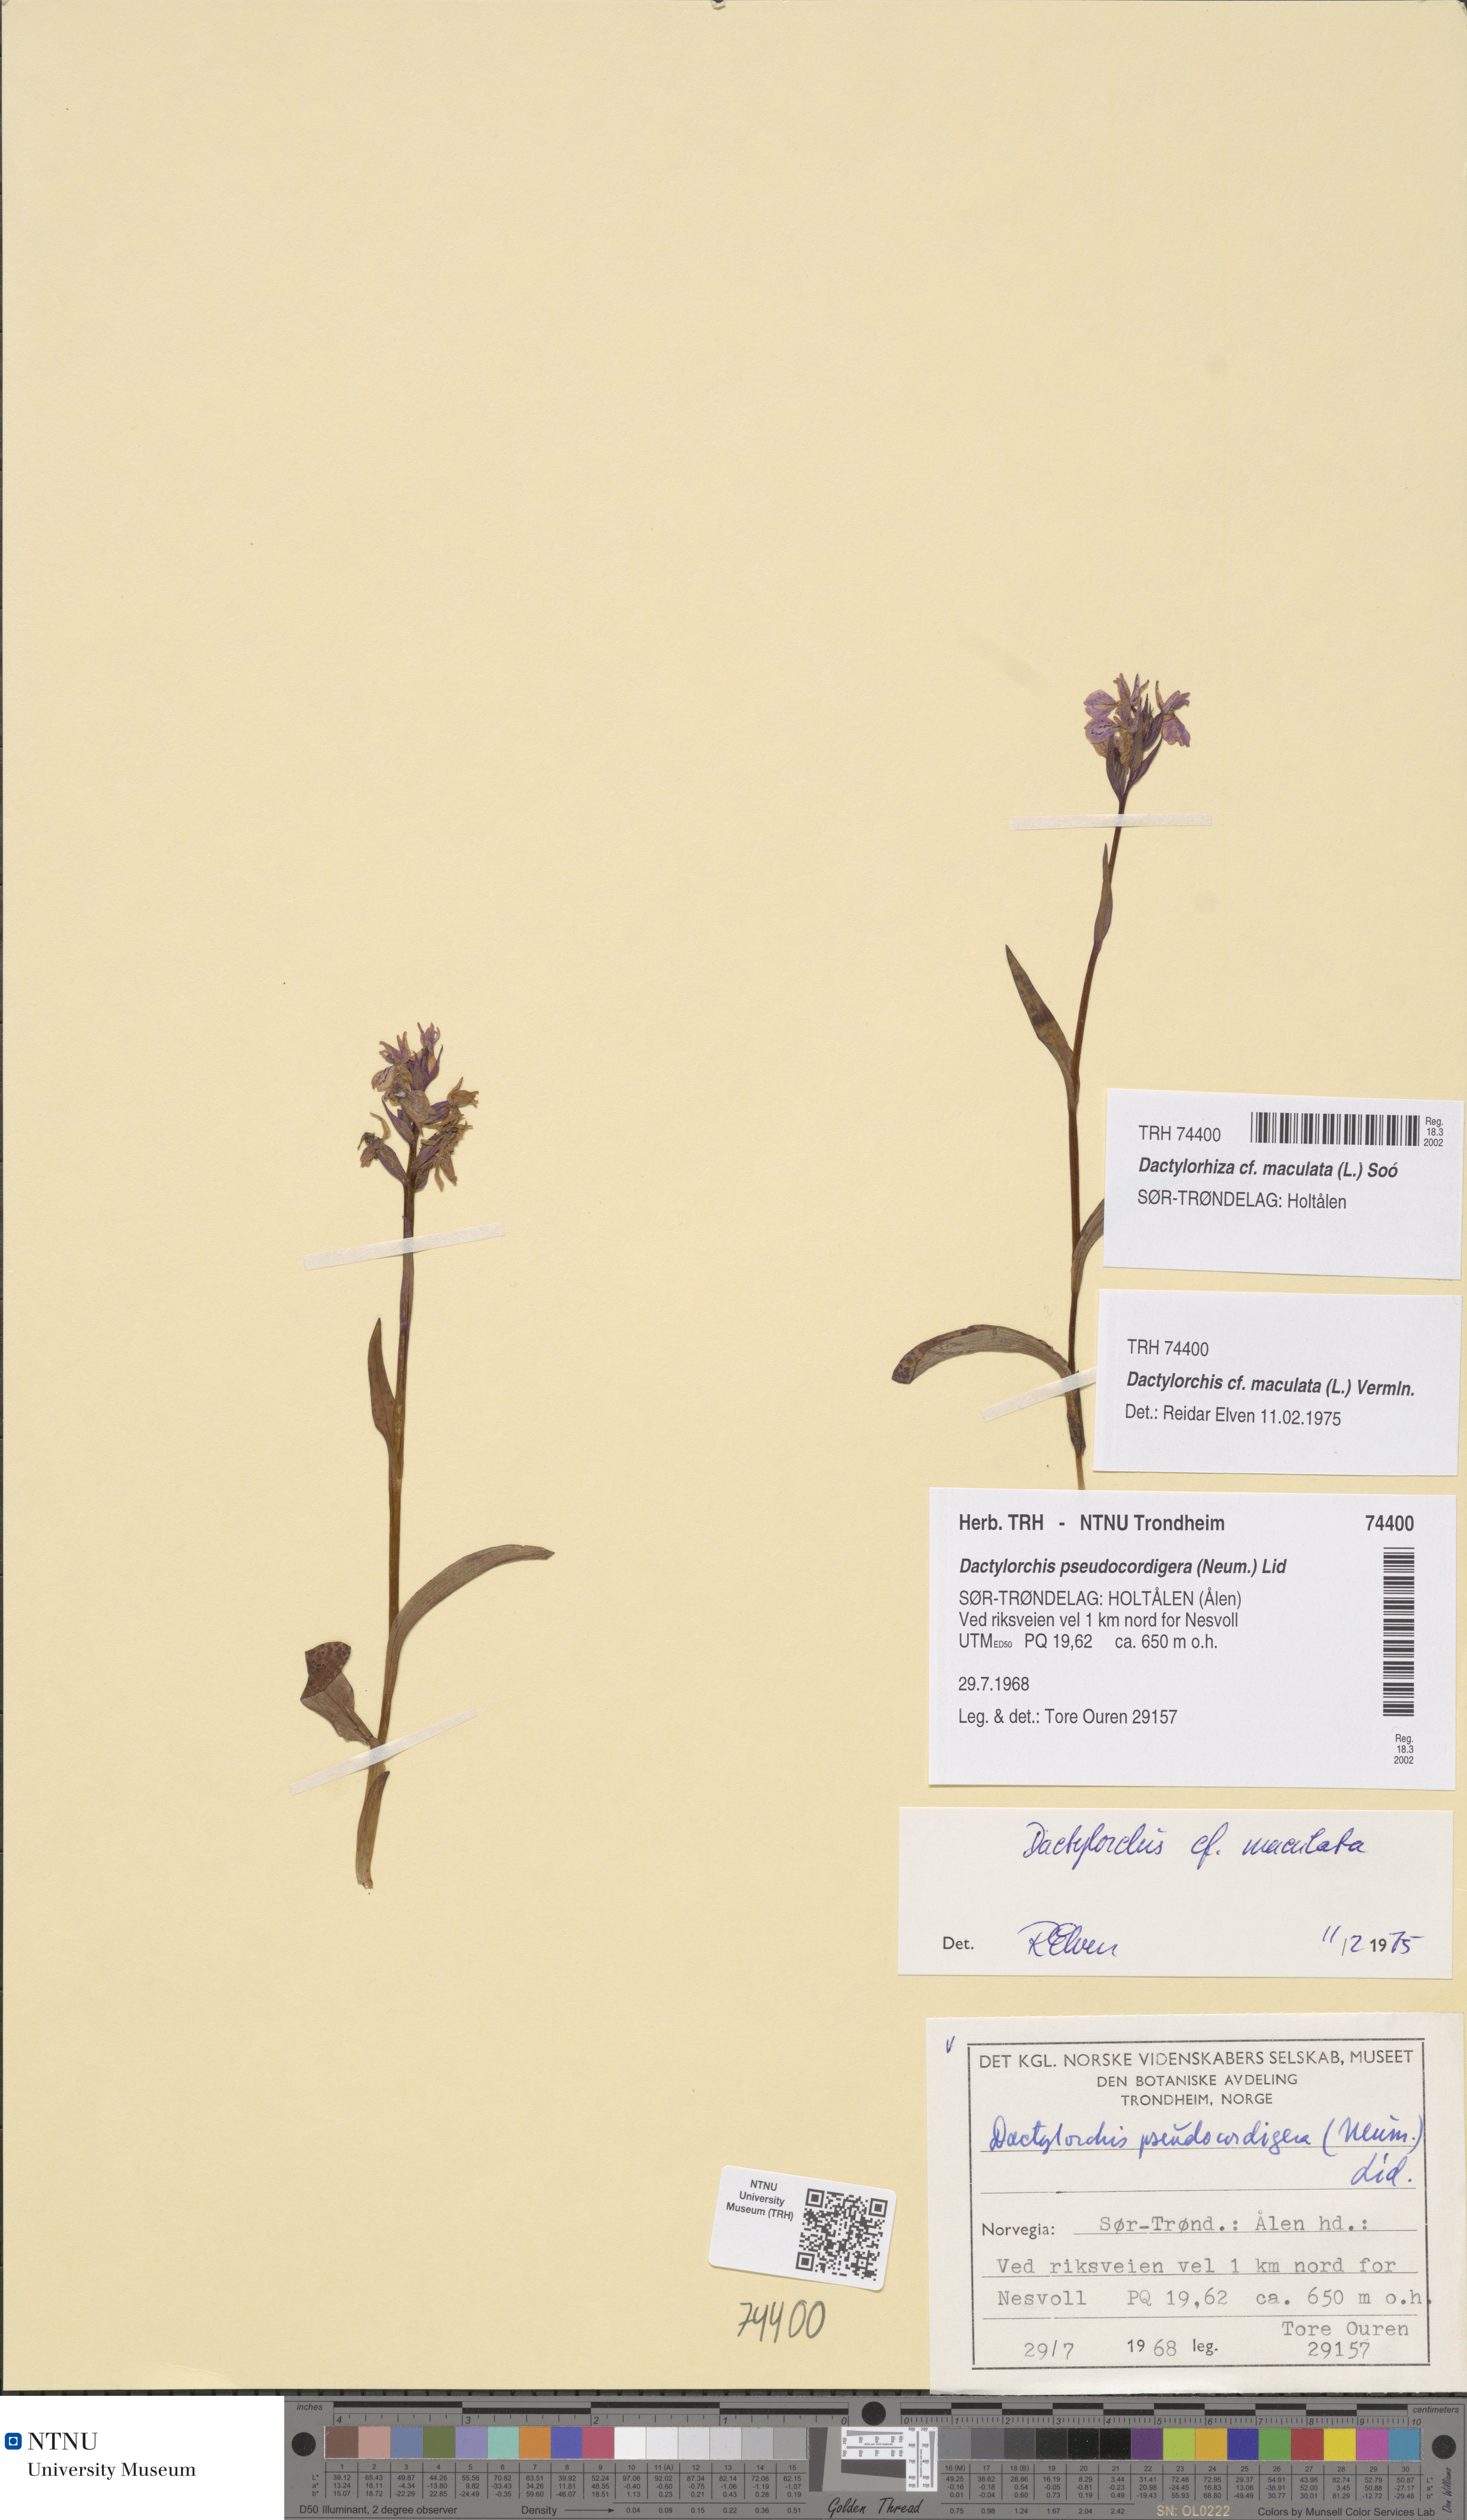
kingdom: Plantae
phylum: Tracheophyta
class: Liliopsida
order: Asparagales
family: Orchidaceae
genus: Dactylorhiza
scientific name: Dactylorhiza maculata
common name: Heath spotted-orchid
